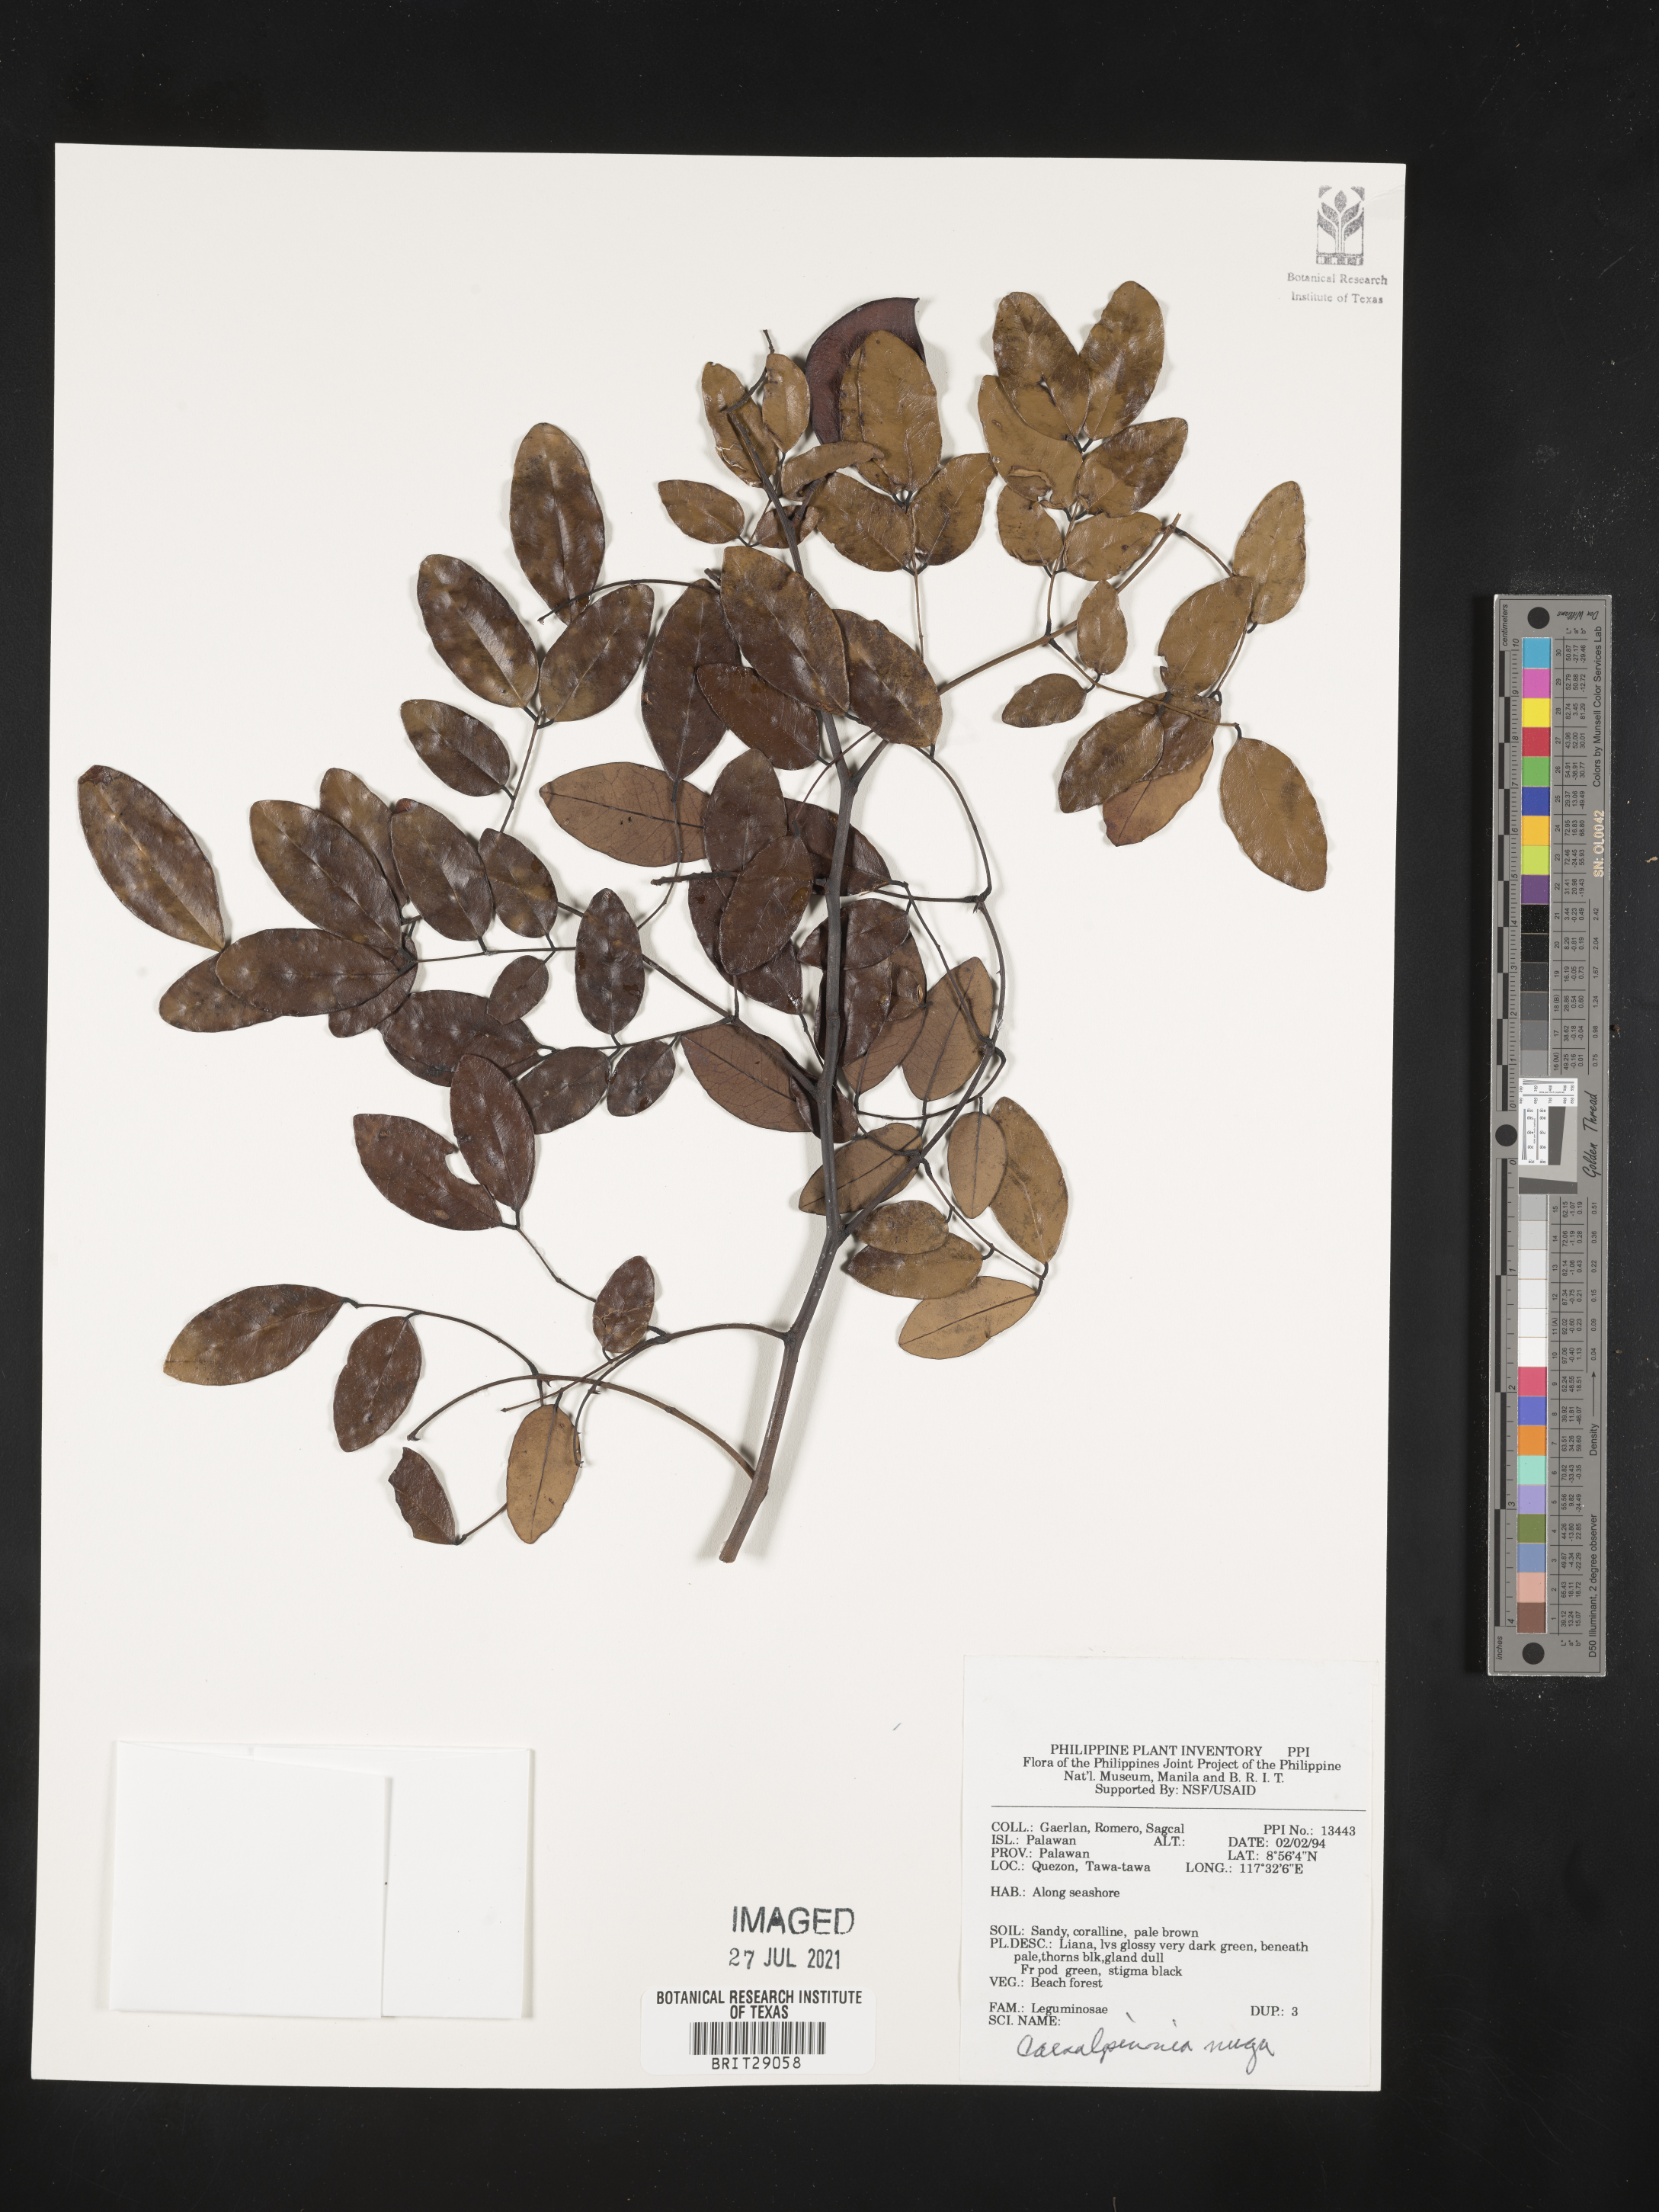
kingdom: Plantae
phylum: Tracheophyta
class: Magnoliopsida
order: Fabales
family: Fabaceae
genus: Caesalpinia
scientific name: Caesalpinia Ticanto crista
